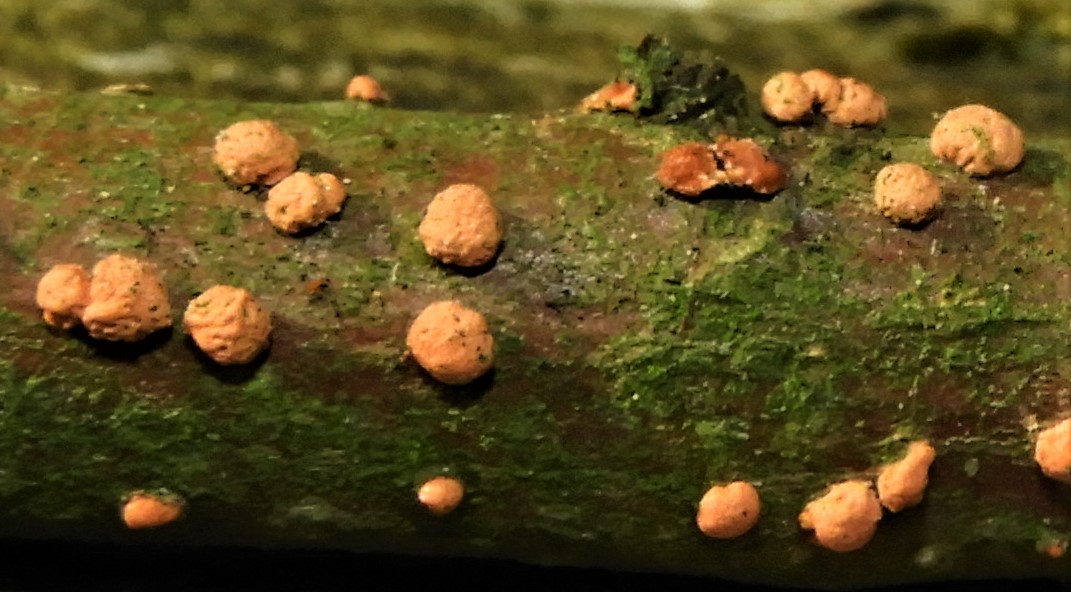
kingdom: Fungi
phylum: Ascomycota
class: Sordariomycetes
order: Hypocreales
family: Nectriaceae
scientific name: Nectriaceae
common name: cinnobersvampfamilien
